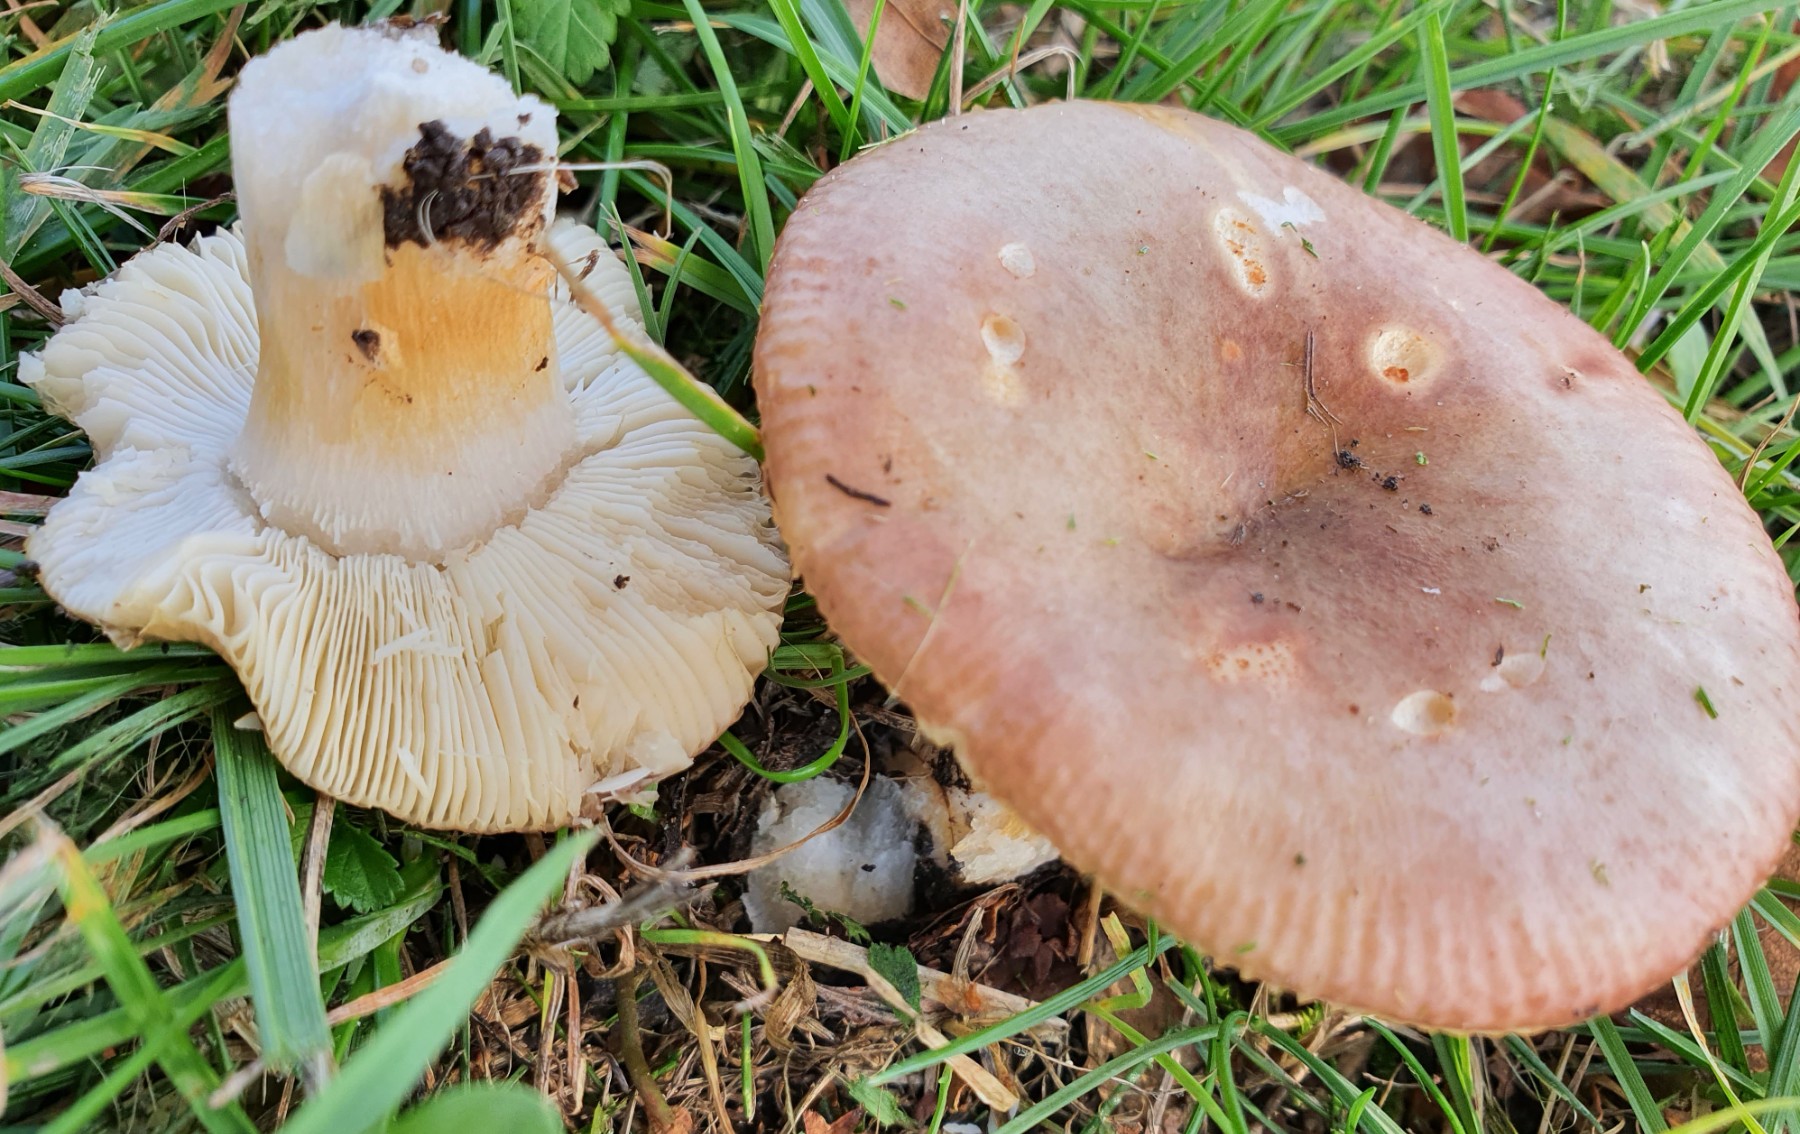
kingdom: Fungi
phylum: Basidiomycota
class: Agaricomycetes
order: Russulales
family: Russulaceae
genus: Russula
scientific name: Russula versicolor
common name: foranderlig skørhat
